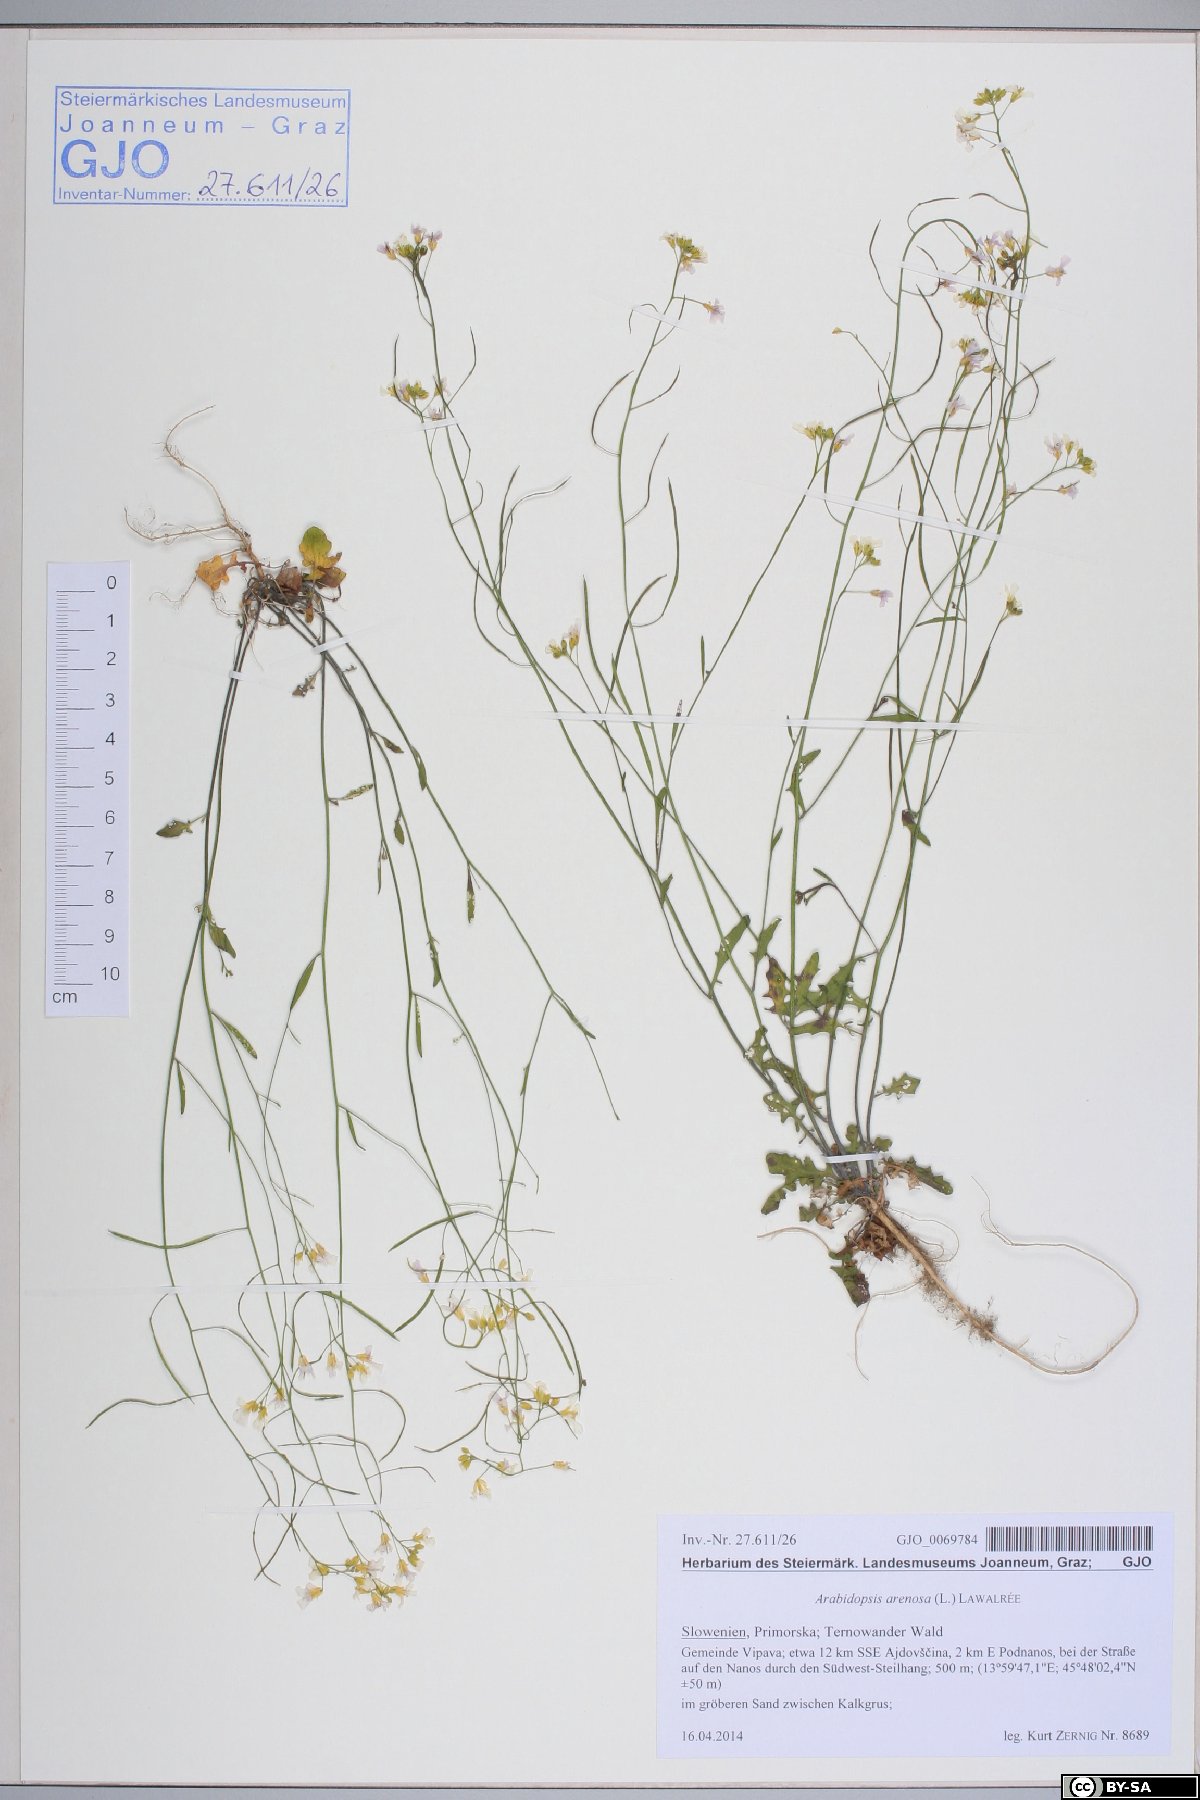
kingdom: Plantae
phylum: Tracheophyta
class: Magnoliopsida
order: Brassicales
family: Brassicaceae
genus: Arabidopsis
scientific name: Arabidopsis arenosa
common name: Sand rock-cress
